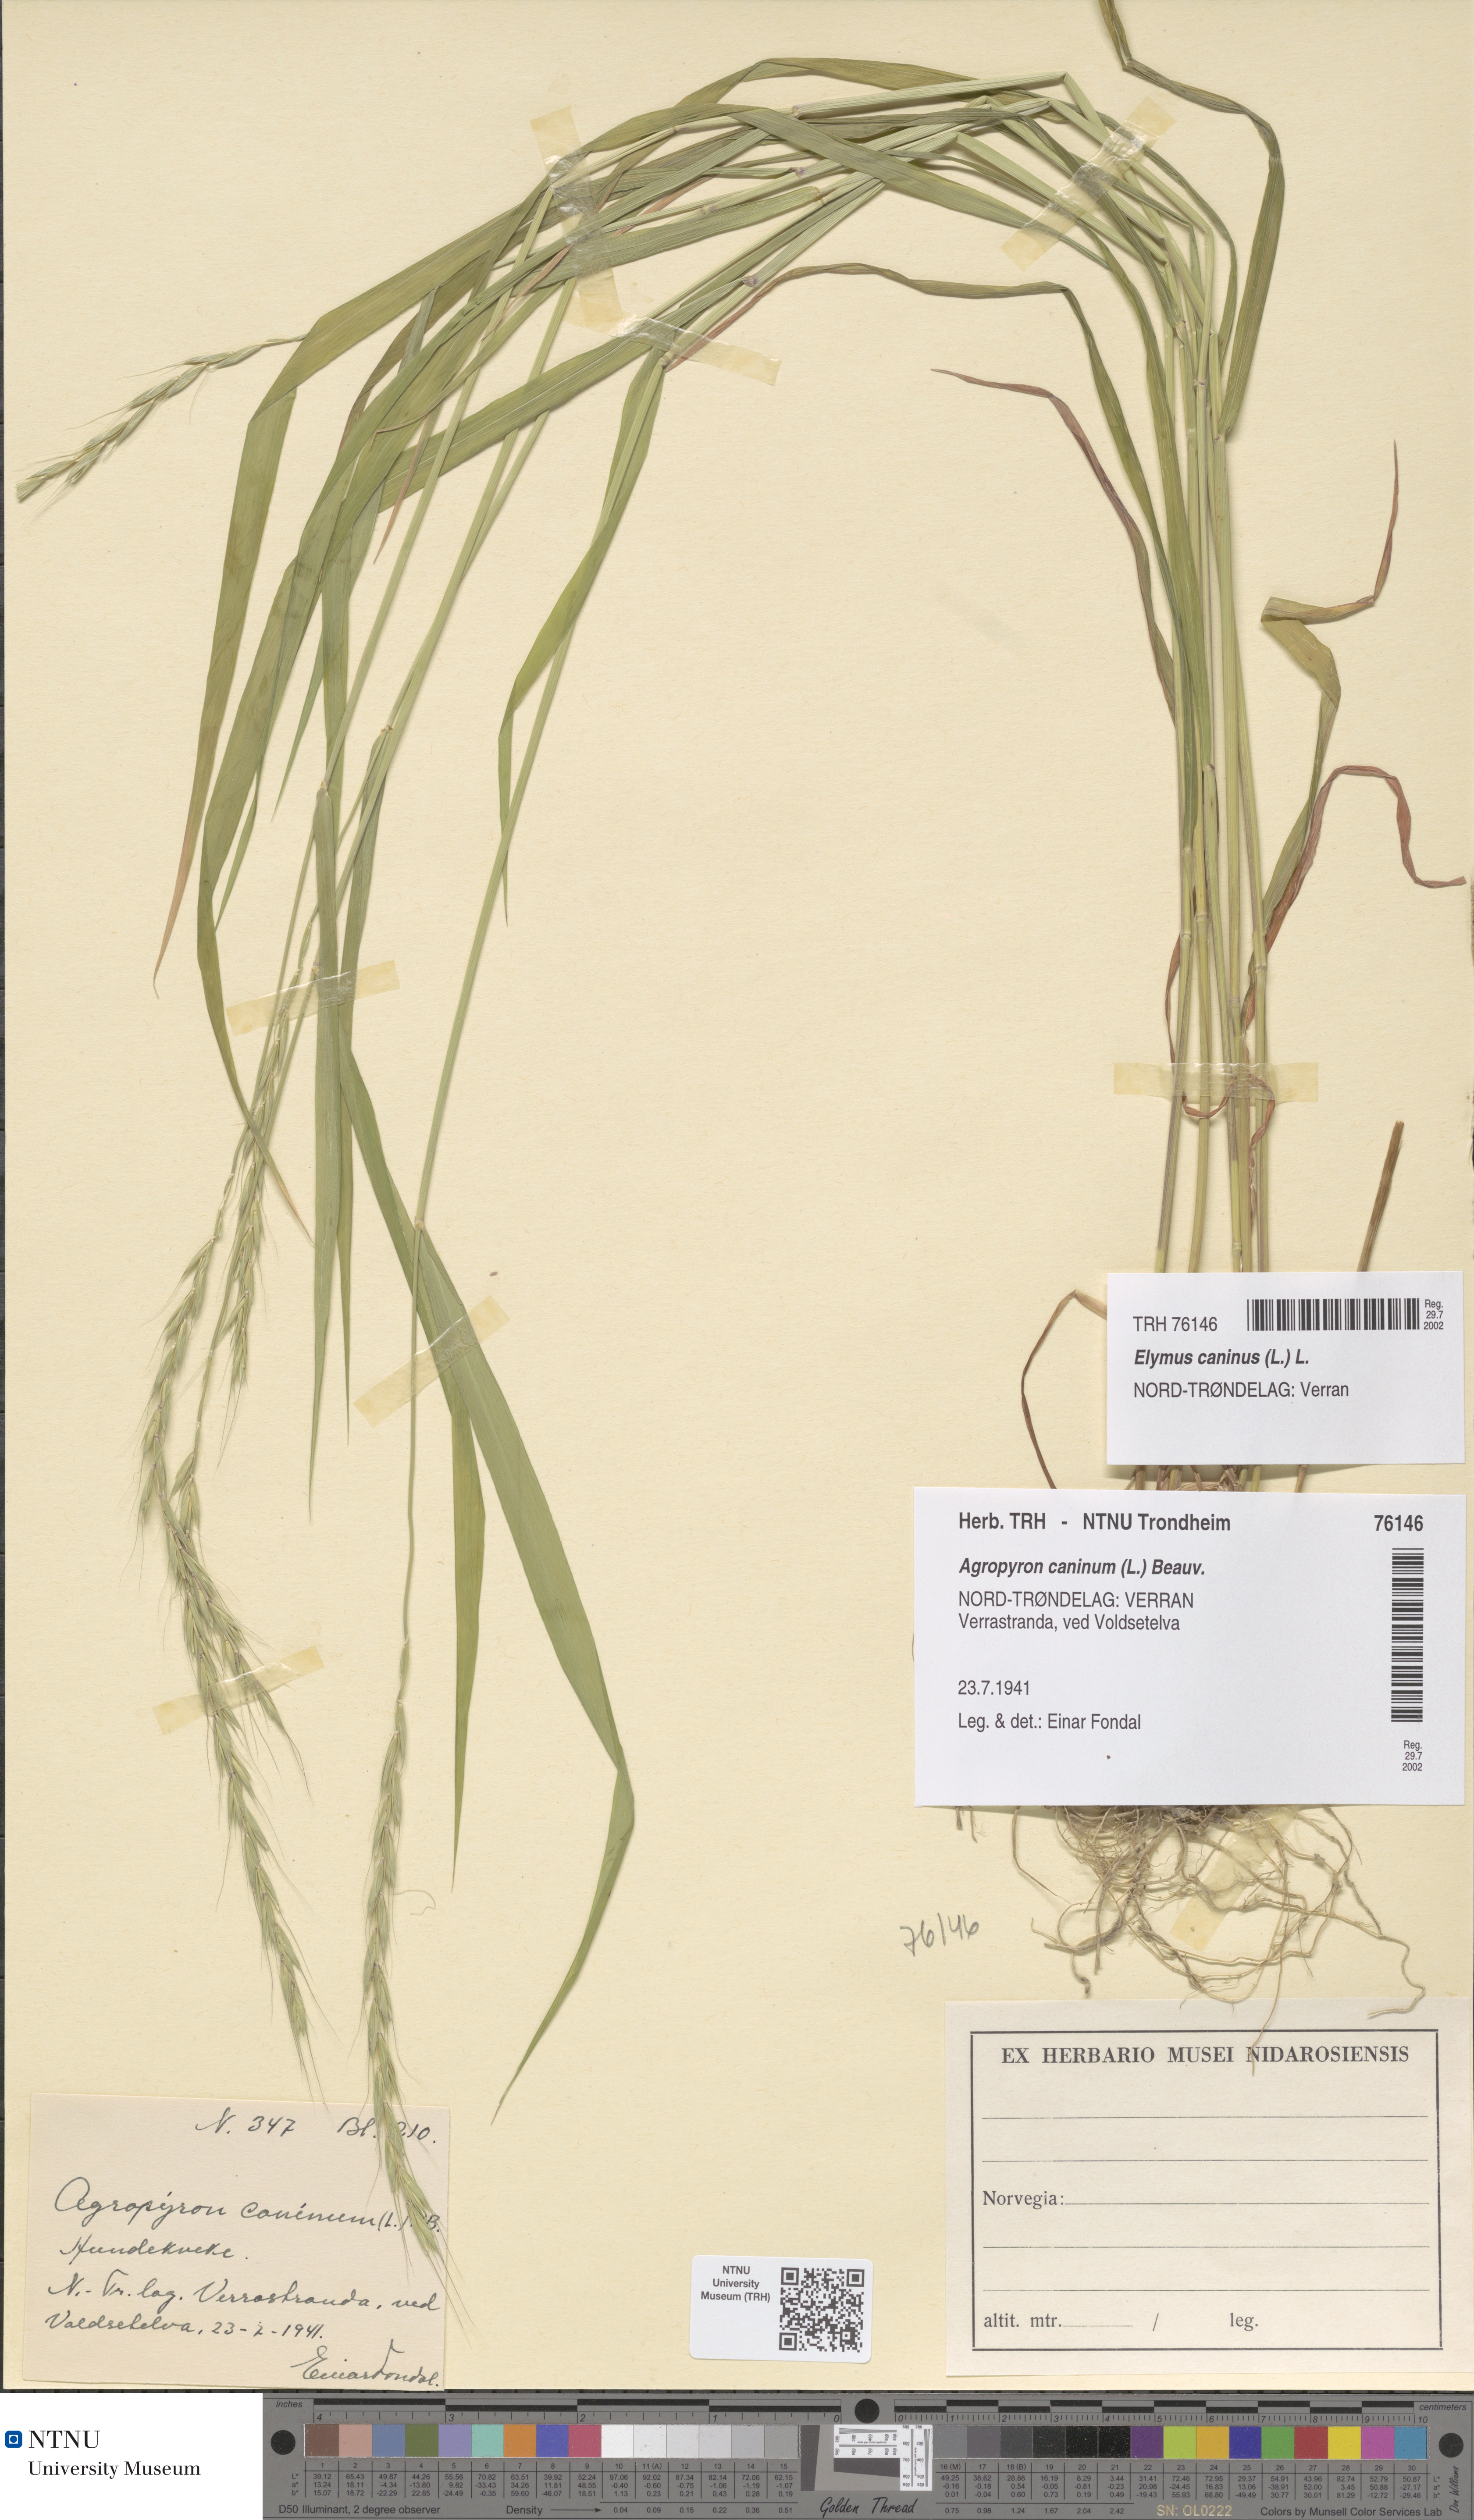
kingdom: Plantae
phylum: Tracheophyta
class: Liliopsida
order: Poales
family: Poaceae
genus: Elymus
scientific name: Elymus caninus
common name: Bearded couch
